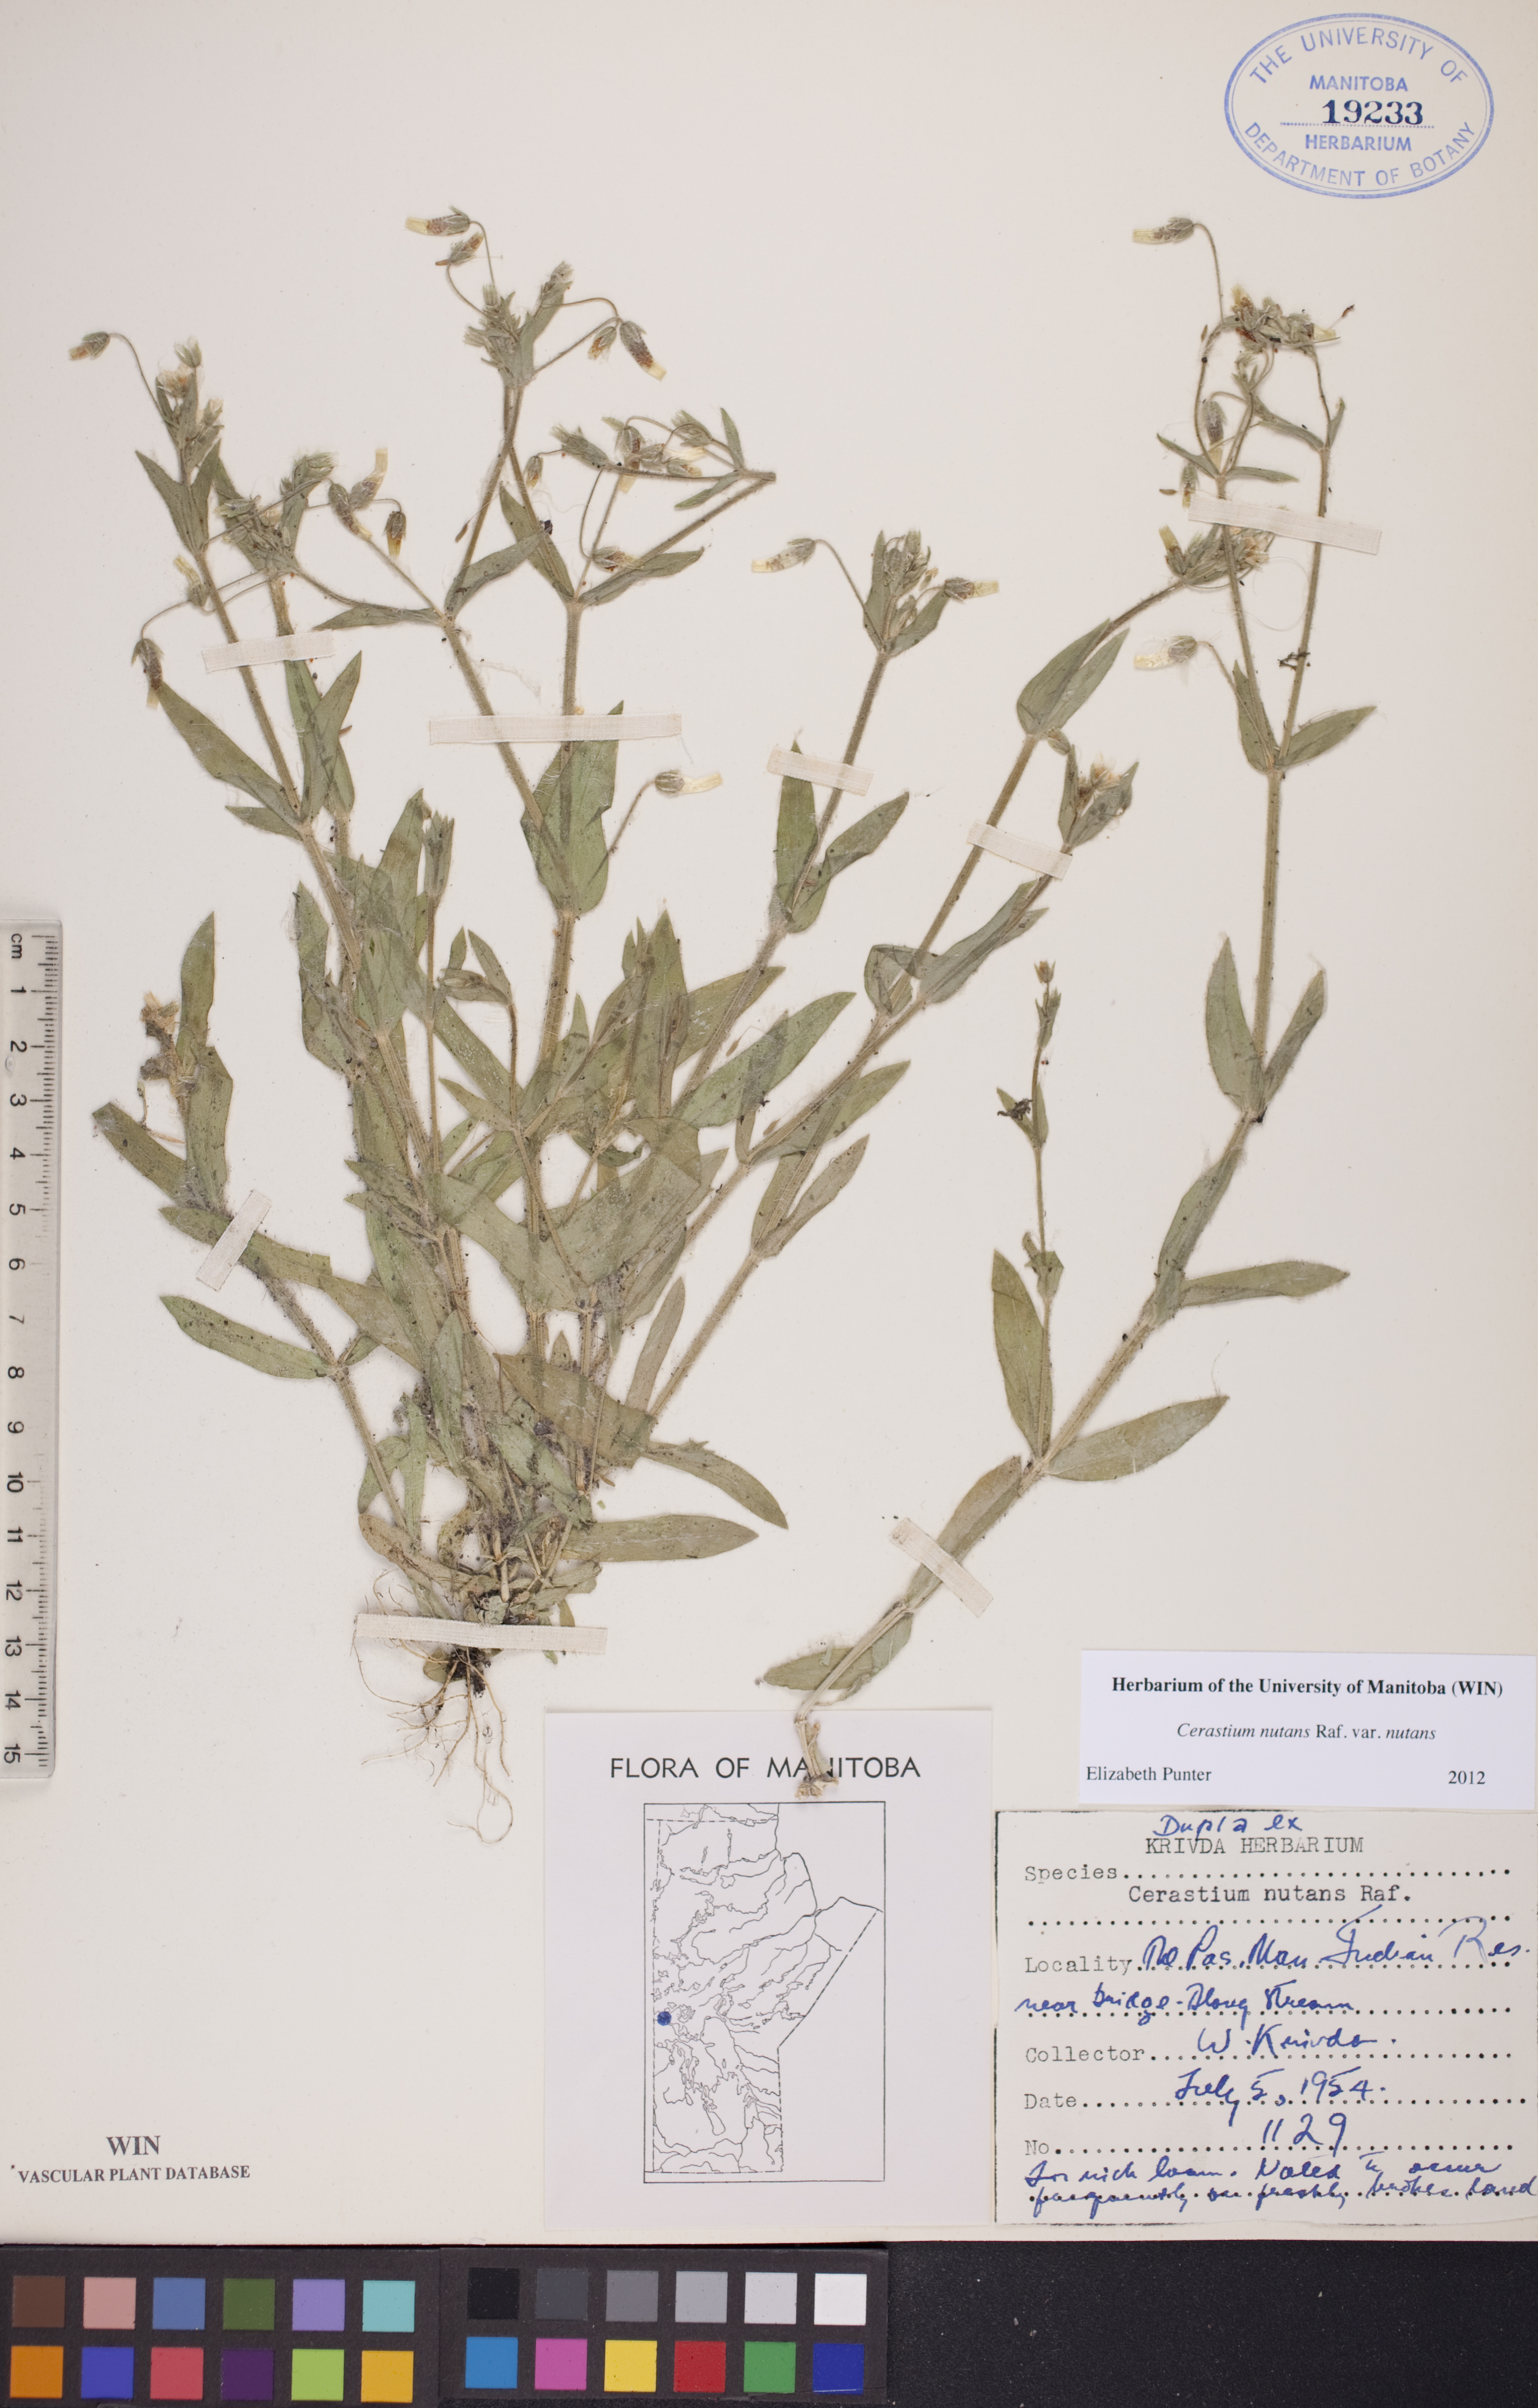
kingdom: Plantae
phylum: Tracheophyta
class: Magnoliopsida
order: Caryophyllales
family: Caryophyllaceae
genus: Cerastium
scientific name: Cerastium nutans
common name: Long-stalked chickweed
